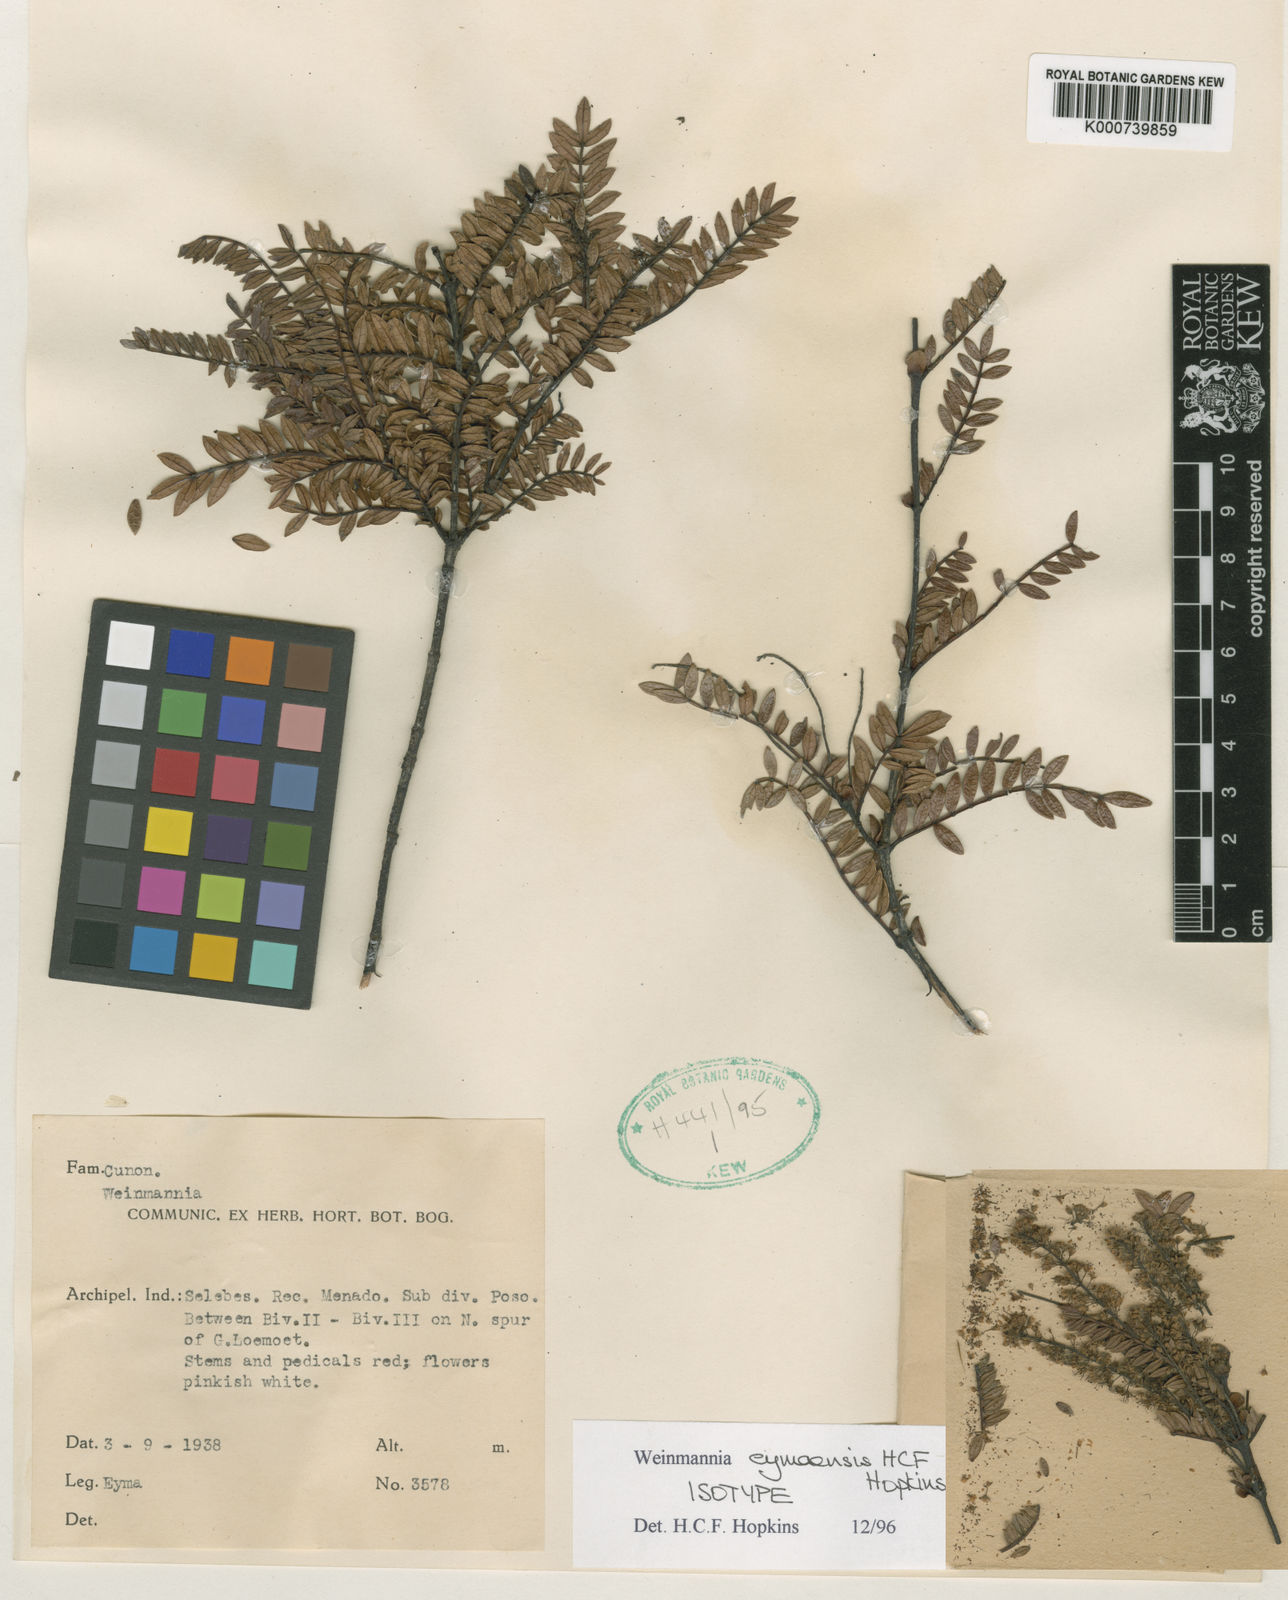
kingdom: Plantae
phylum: Tracheophyta
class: Magnoliopsida
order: Oxalidales
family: Cunoniaceae
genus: Weinmannia
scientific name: Weinmannia
